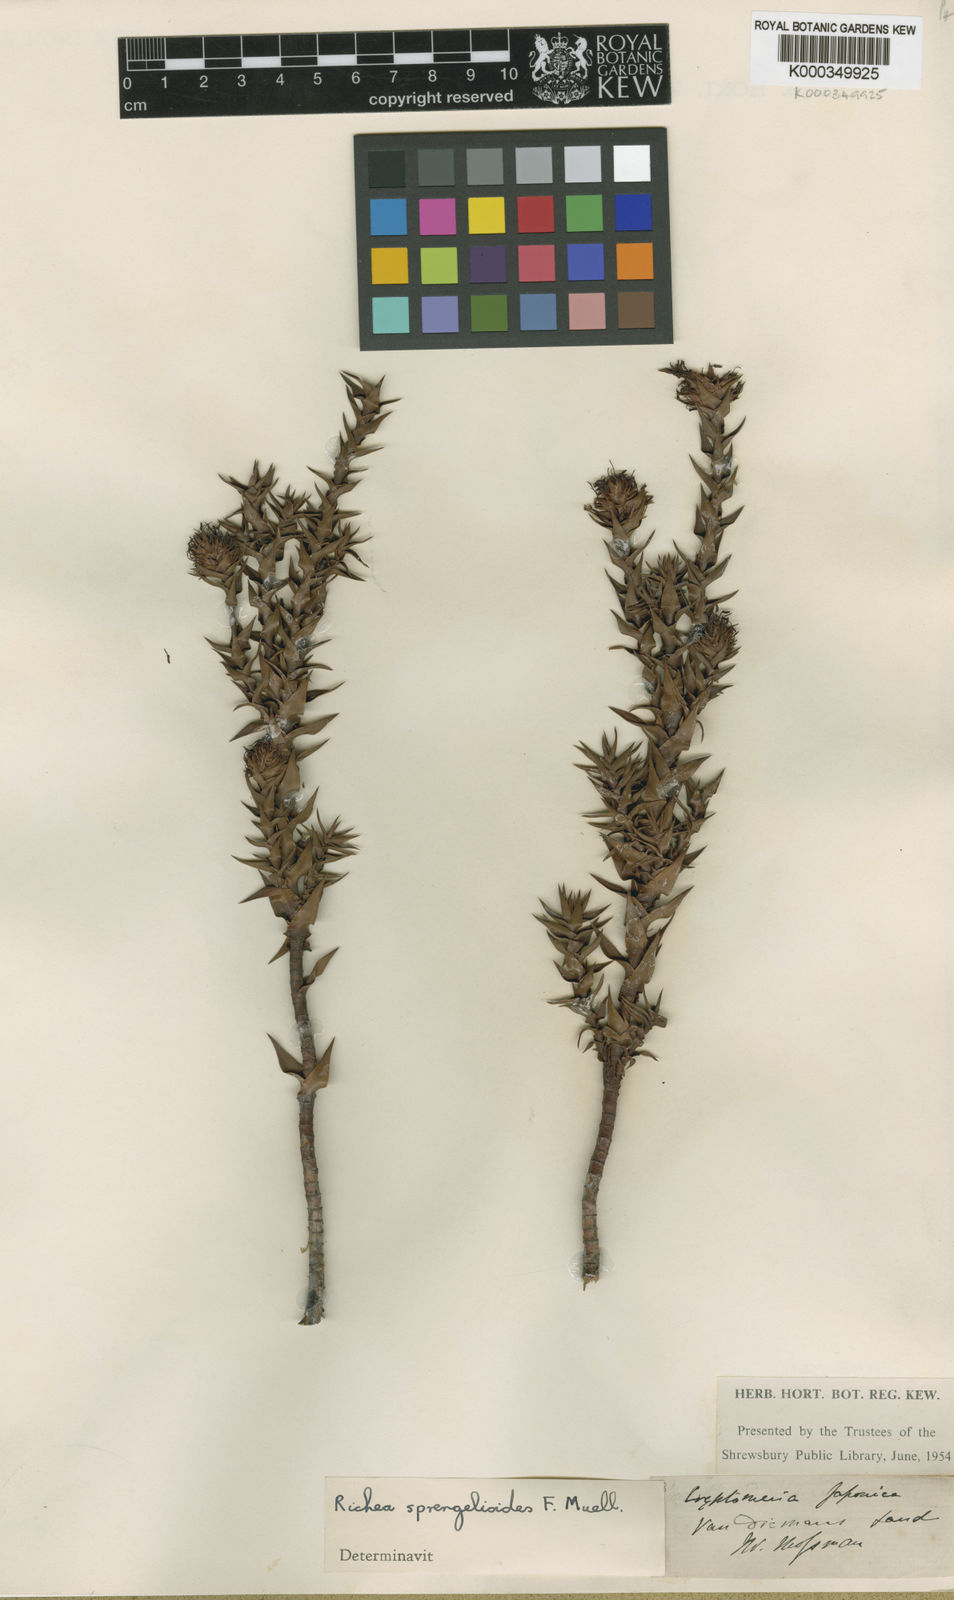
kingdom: Plantae
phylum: Tracheophyta
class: Magnoliopsida
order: Ericales
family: Ericaceae
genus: Dracophyllum
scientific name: Dracophyllum sprengelioides
